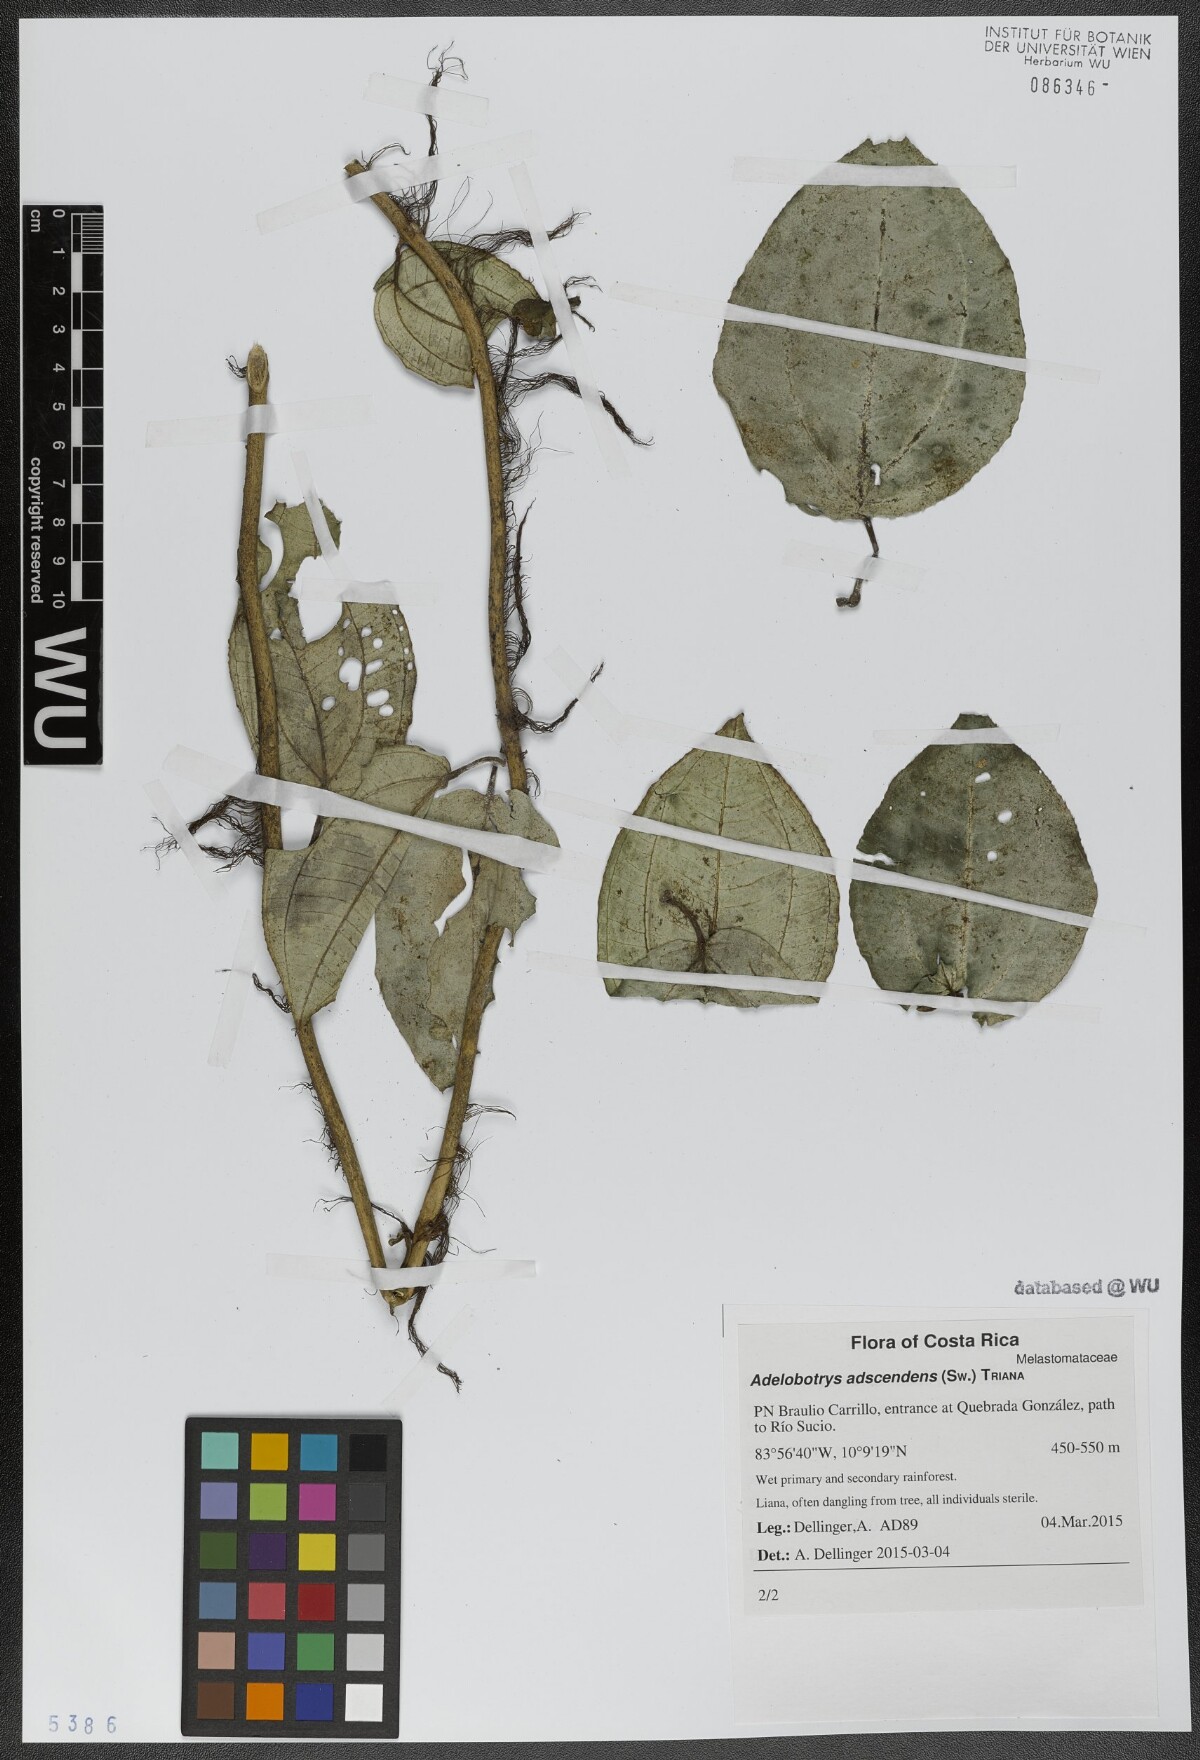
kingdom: Plantae
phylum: Tracheophyta
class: Magnoliopsida
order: Myrtales
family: Melastomataceae
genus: Adelobotrys
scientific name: Adelobotrys adscendens
